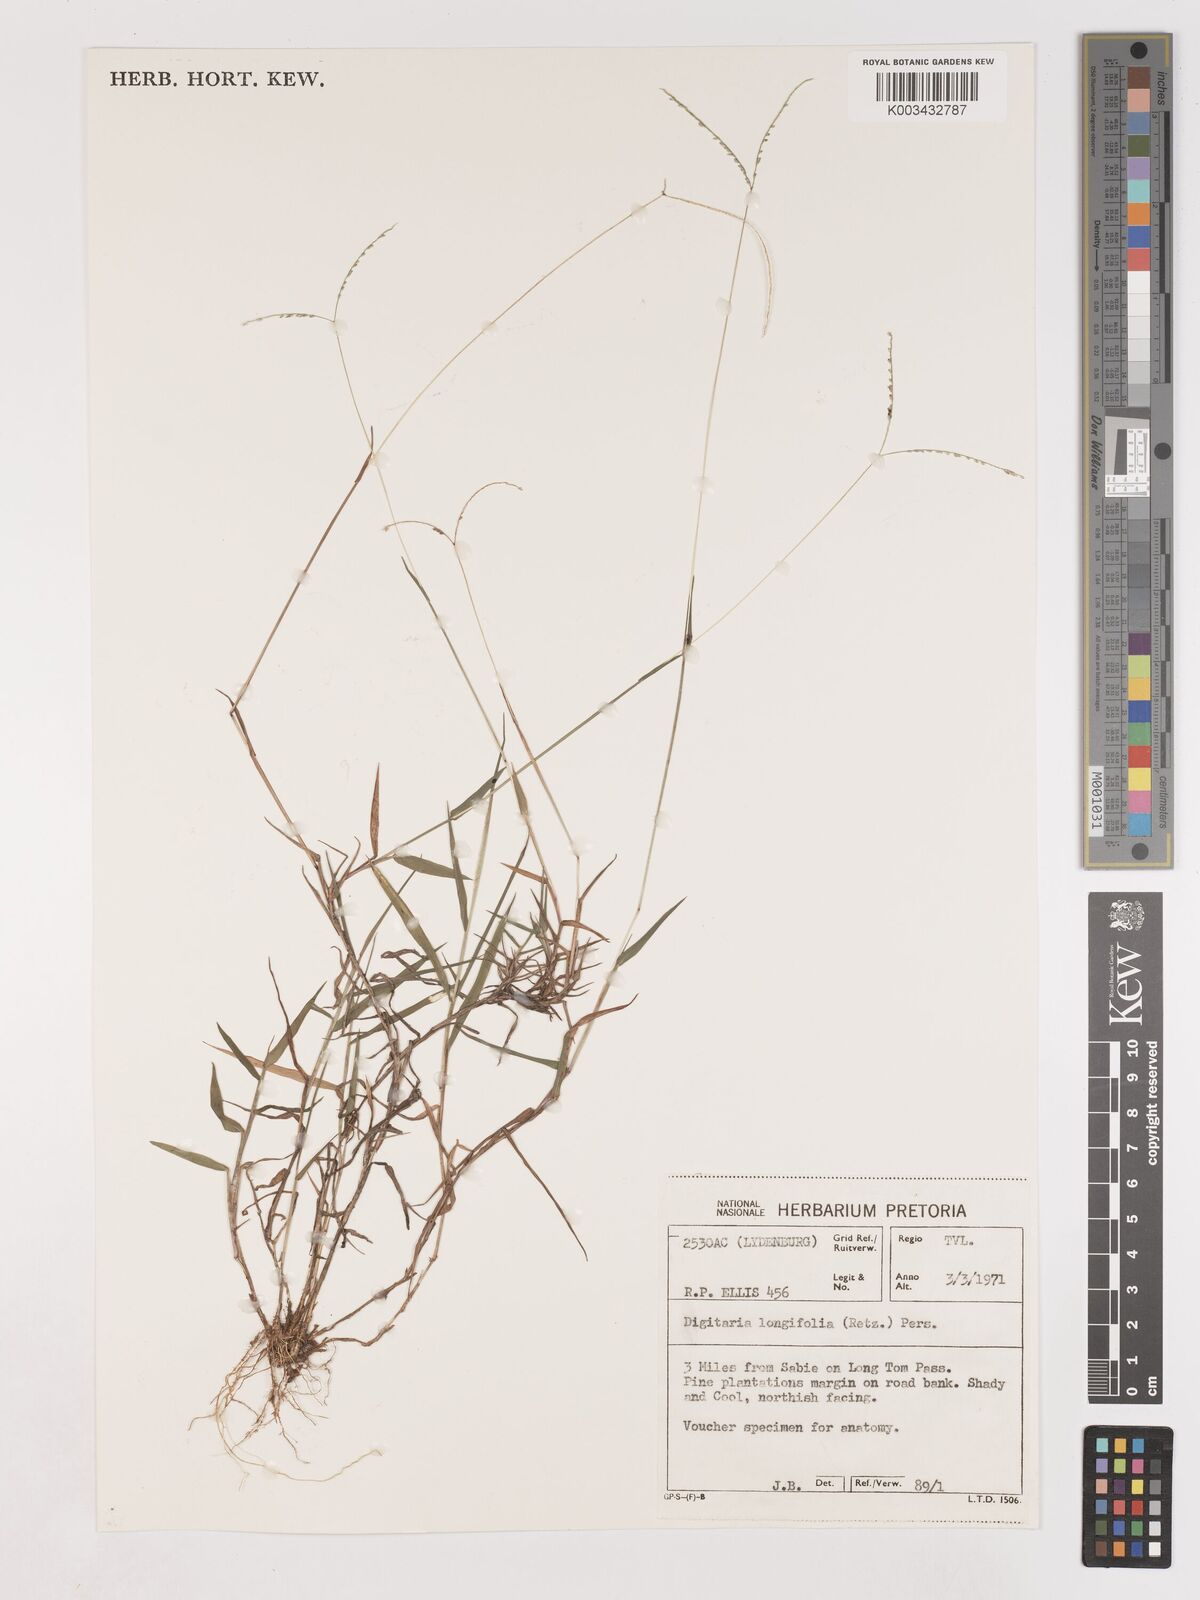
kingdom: Plantae
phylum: Tracheophyta
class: Liliopsida
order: Poales
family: Poaceae
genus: Digitaria
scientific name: Digitaria longiflora
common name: Wire crabgrass
